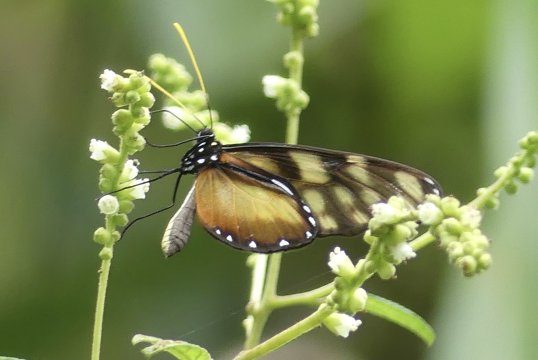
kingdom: Animalia
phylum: Arthropoda
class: Insecta
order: Lepidoptera
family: Nymphalidae
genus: Dircenna
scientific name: Dircenna klugii
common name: Klug’s Clearwing
